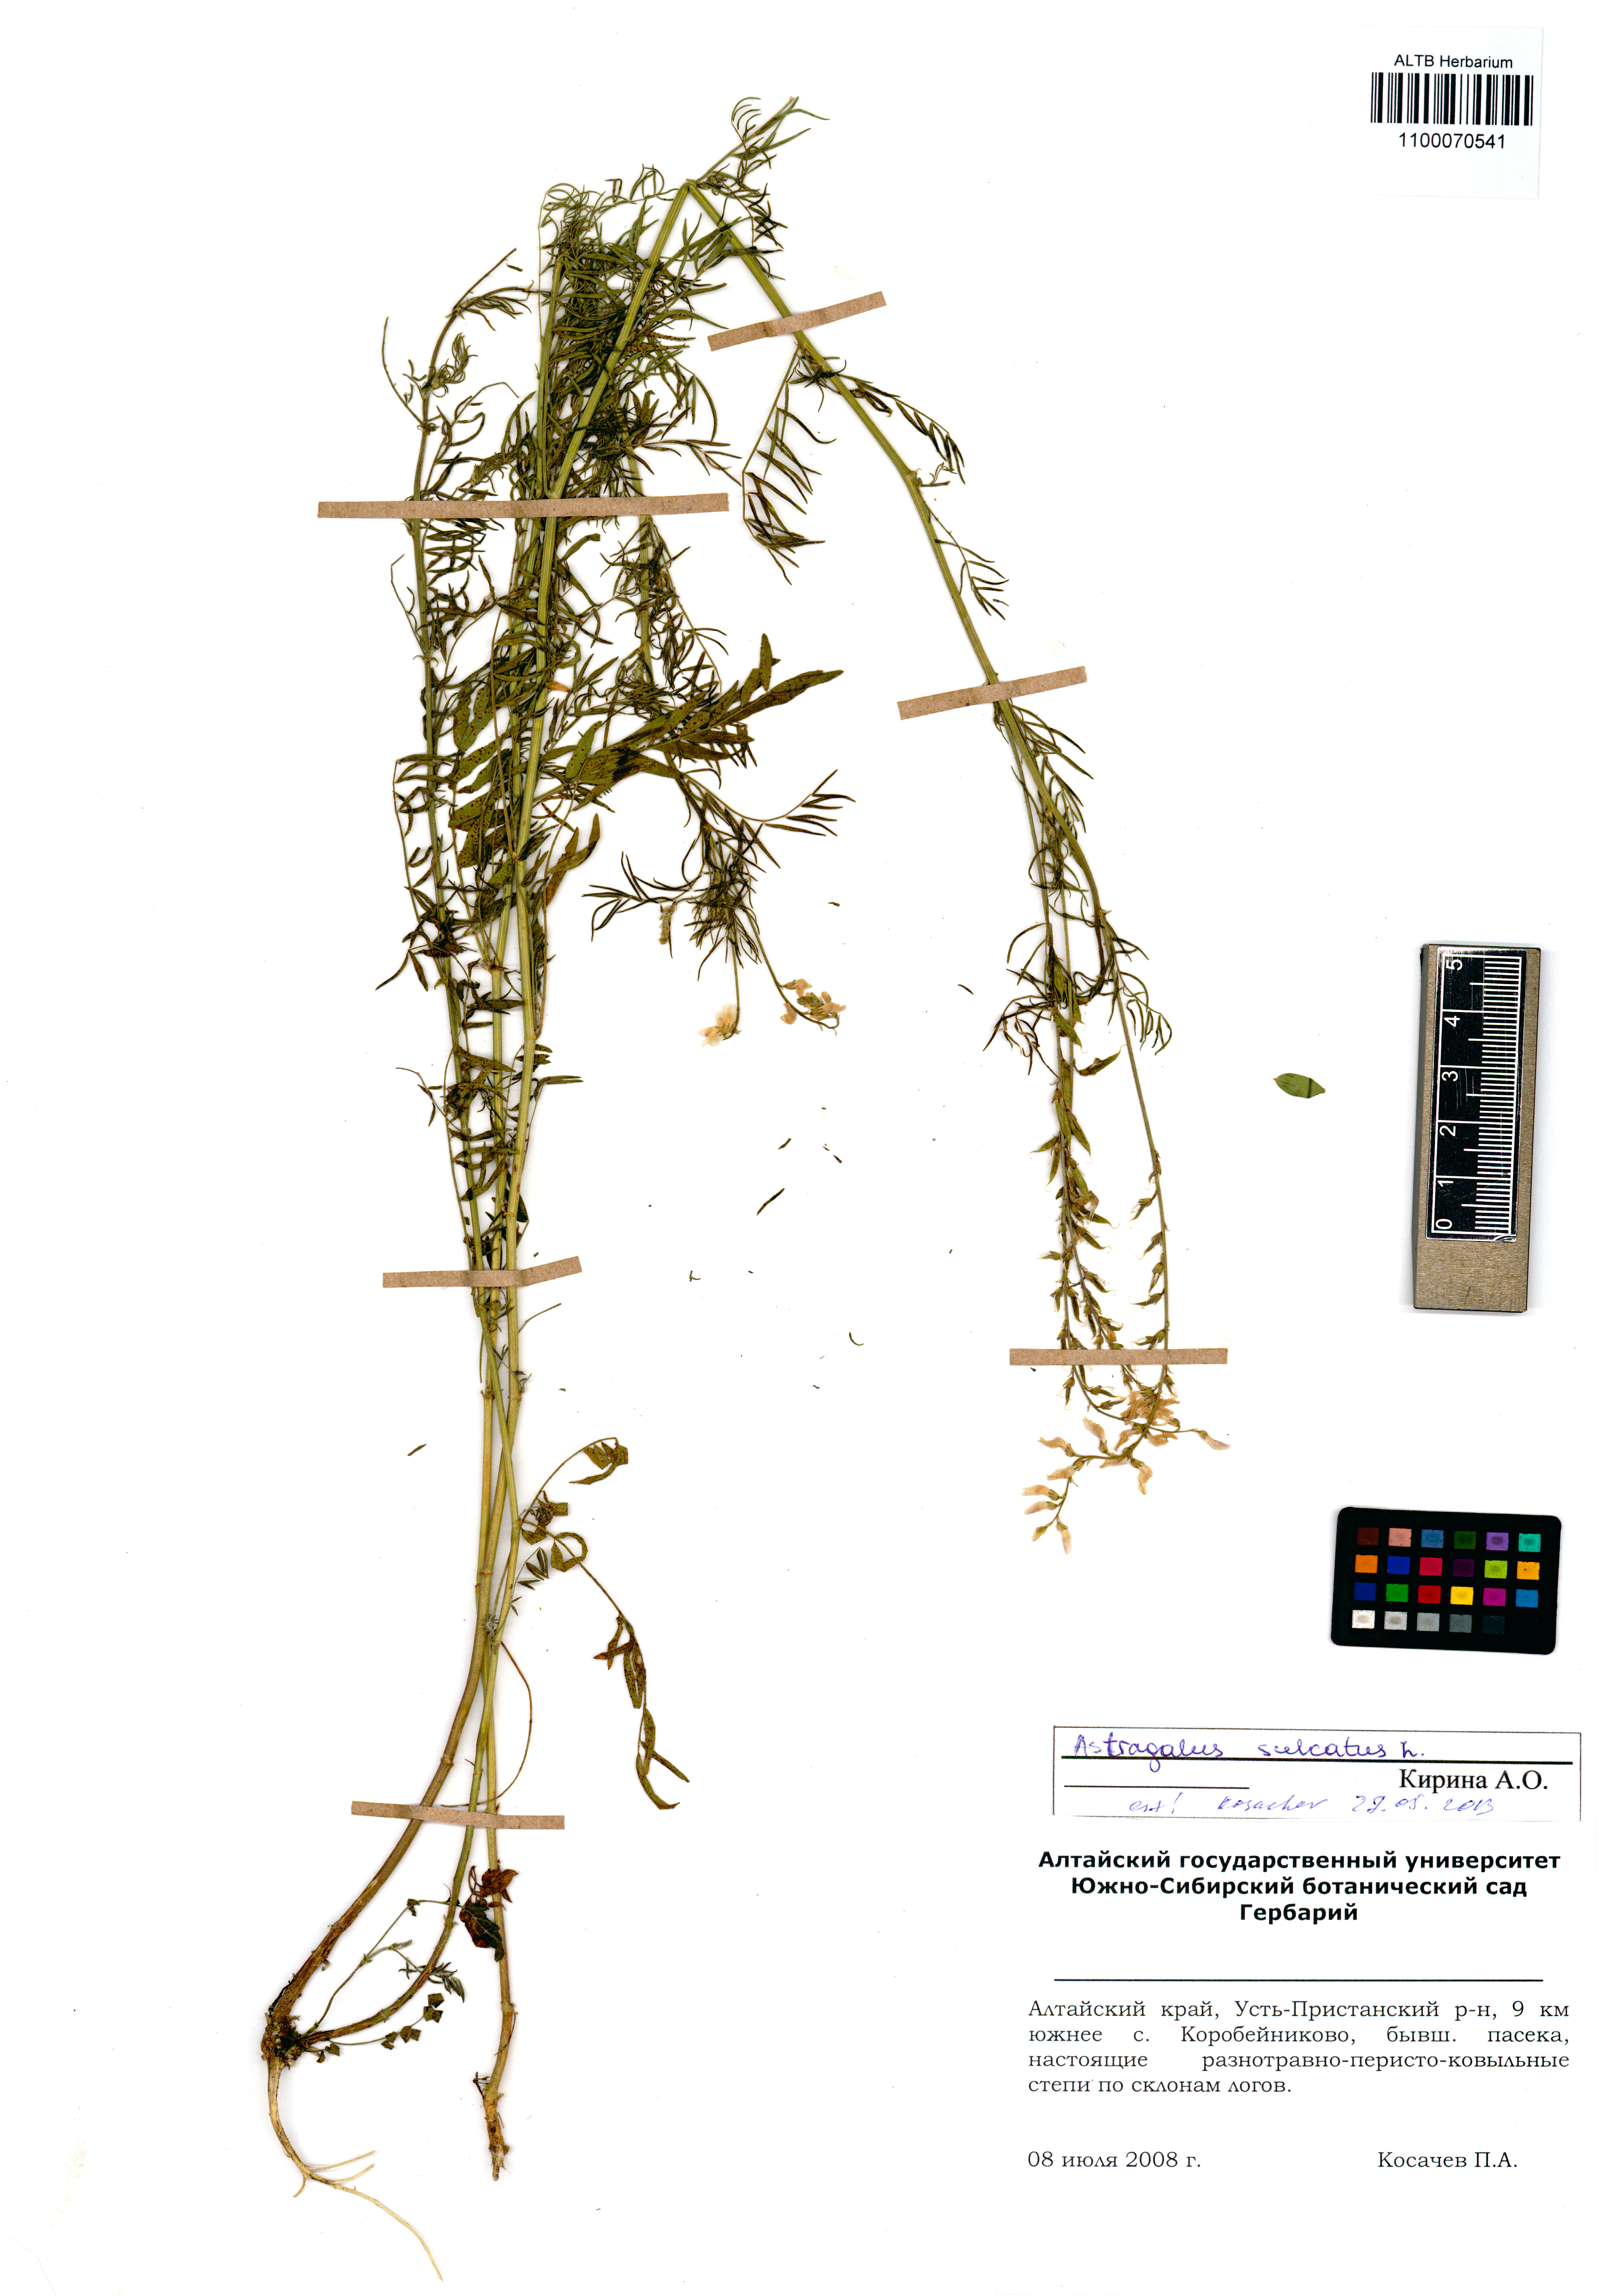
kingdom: Plantae
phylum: Tracheophyta
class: Magnoliopsida
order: Fabales
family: Fabaceae
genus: Astragalus
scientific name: Astragalus sulcatus
